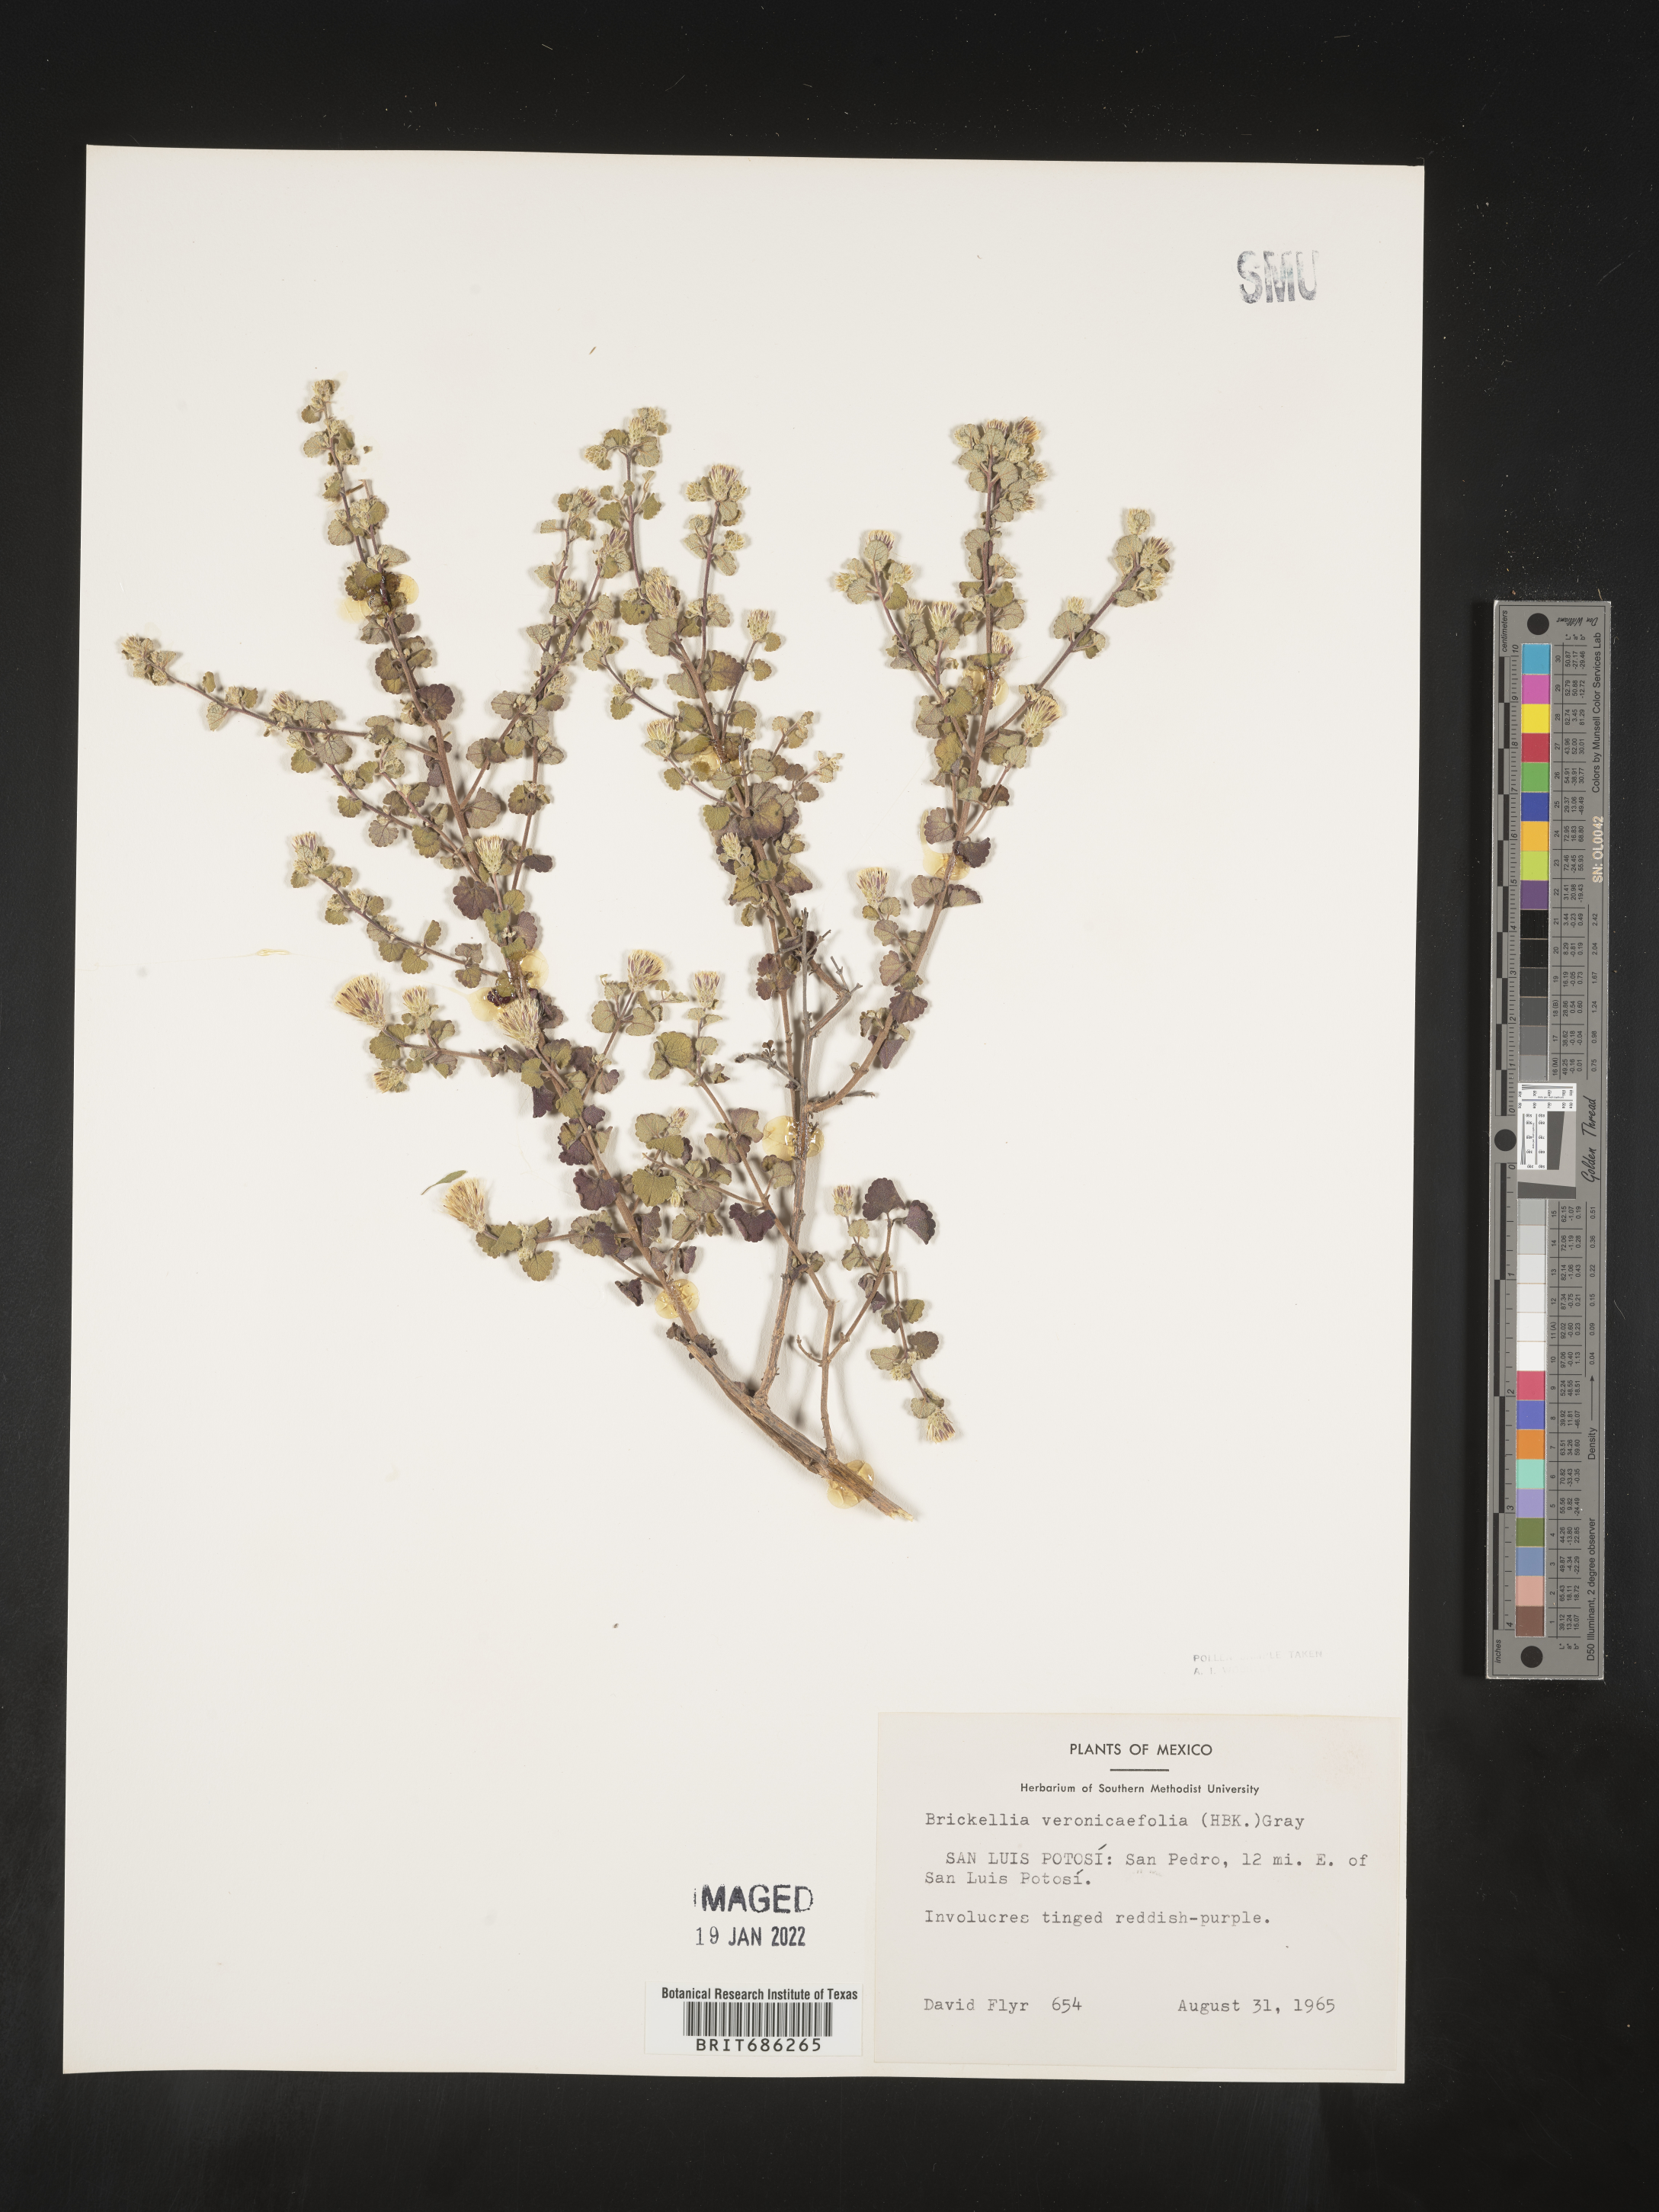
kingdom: Plantae
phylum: Tracheophyta
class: Magnoliopsida
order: Asterales
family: Asteraceae
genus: Brickellia
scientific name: Brickellia veronicifolia
